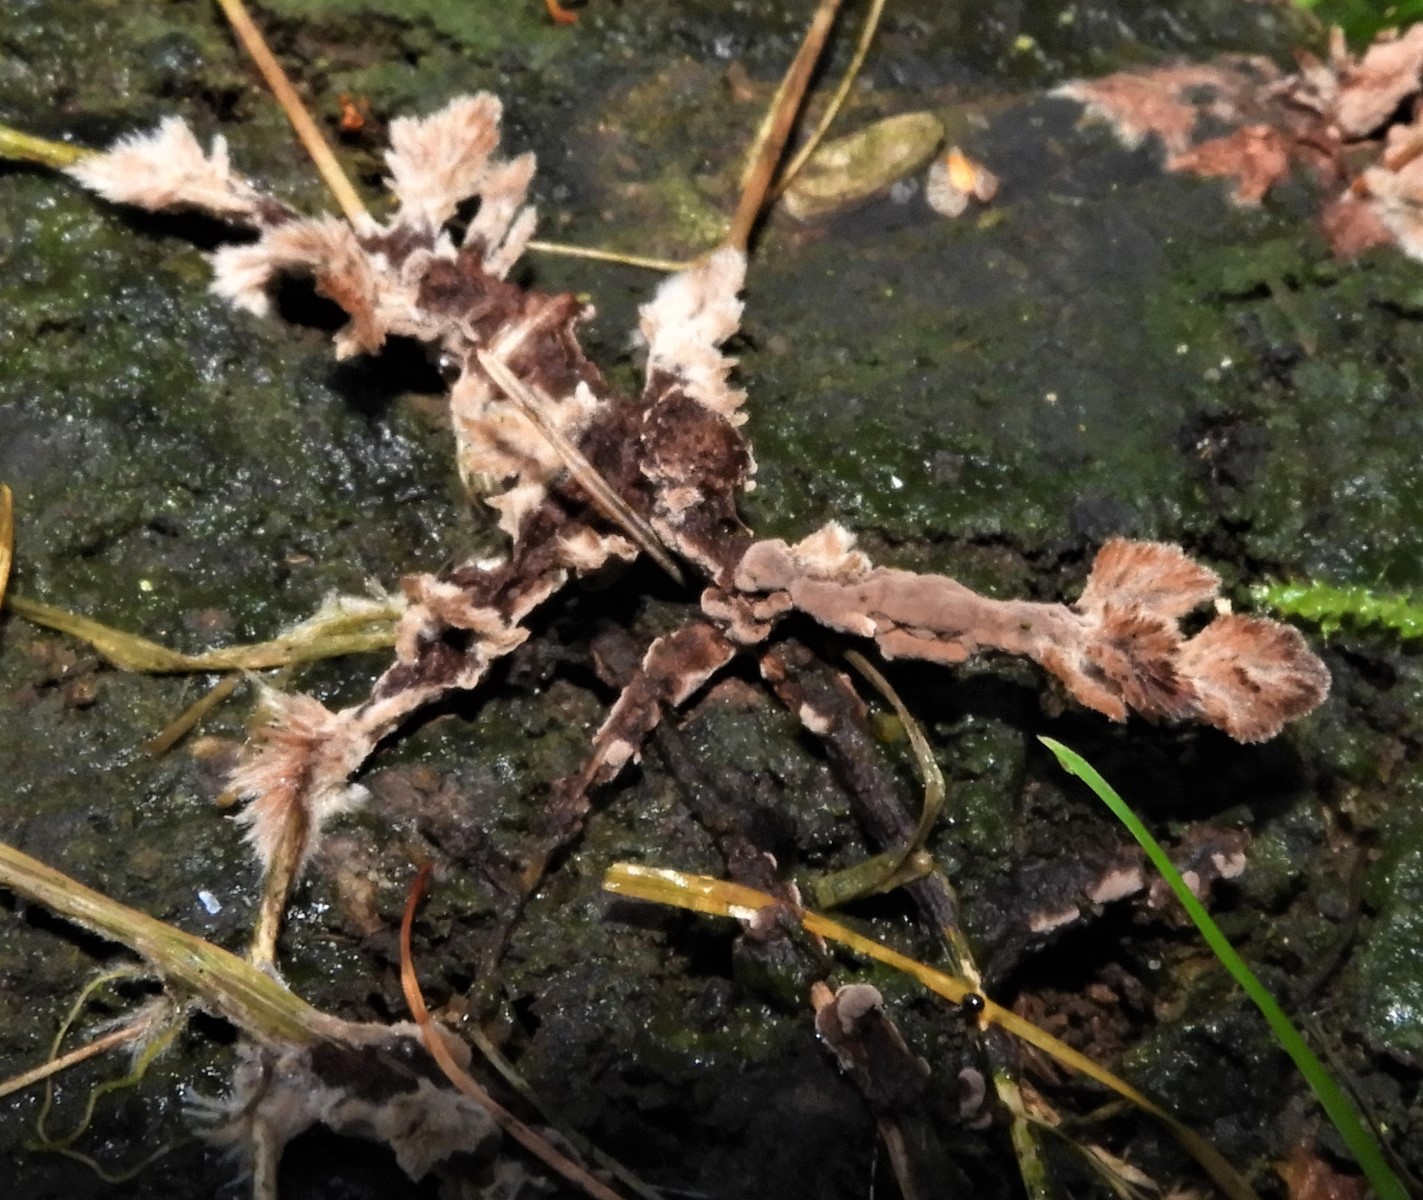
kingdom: Fungi
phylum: Basidiomycota
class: Agaricomycetes
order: Thelephorales
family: Thelephoraceae
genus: Thelephora
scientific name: Thelephora terrestris
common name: fliget frynsesvamp
